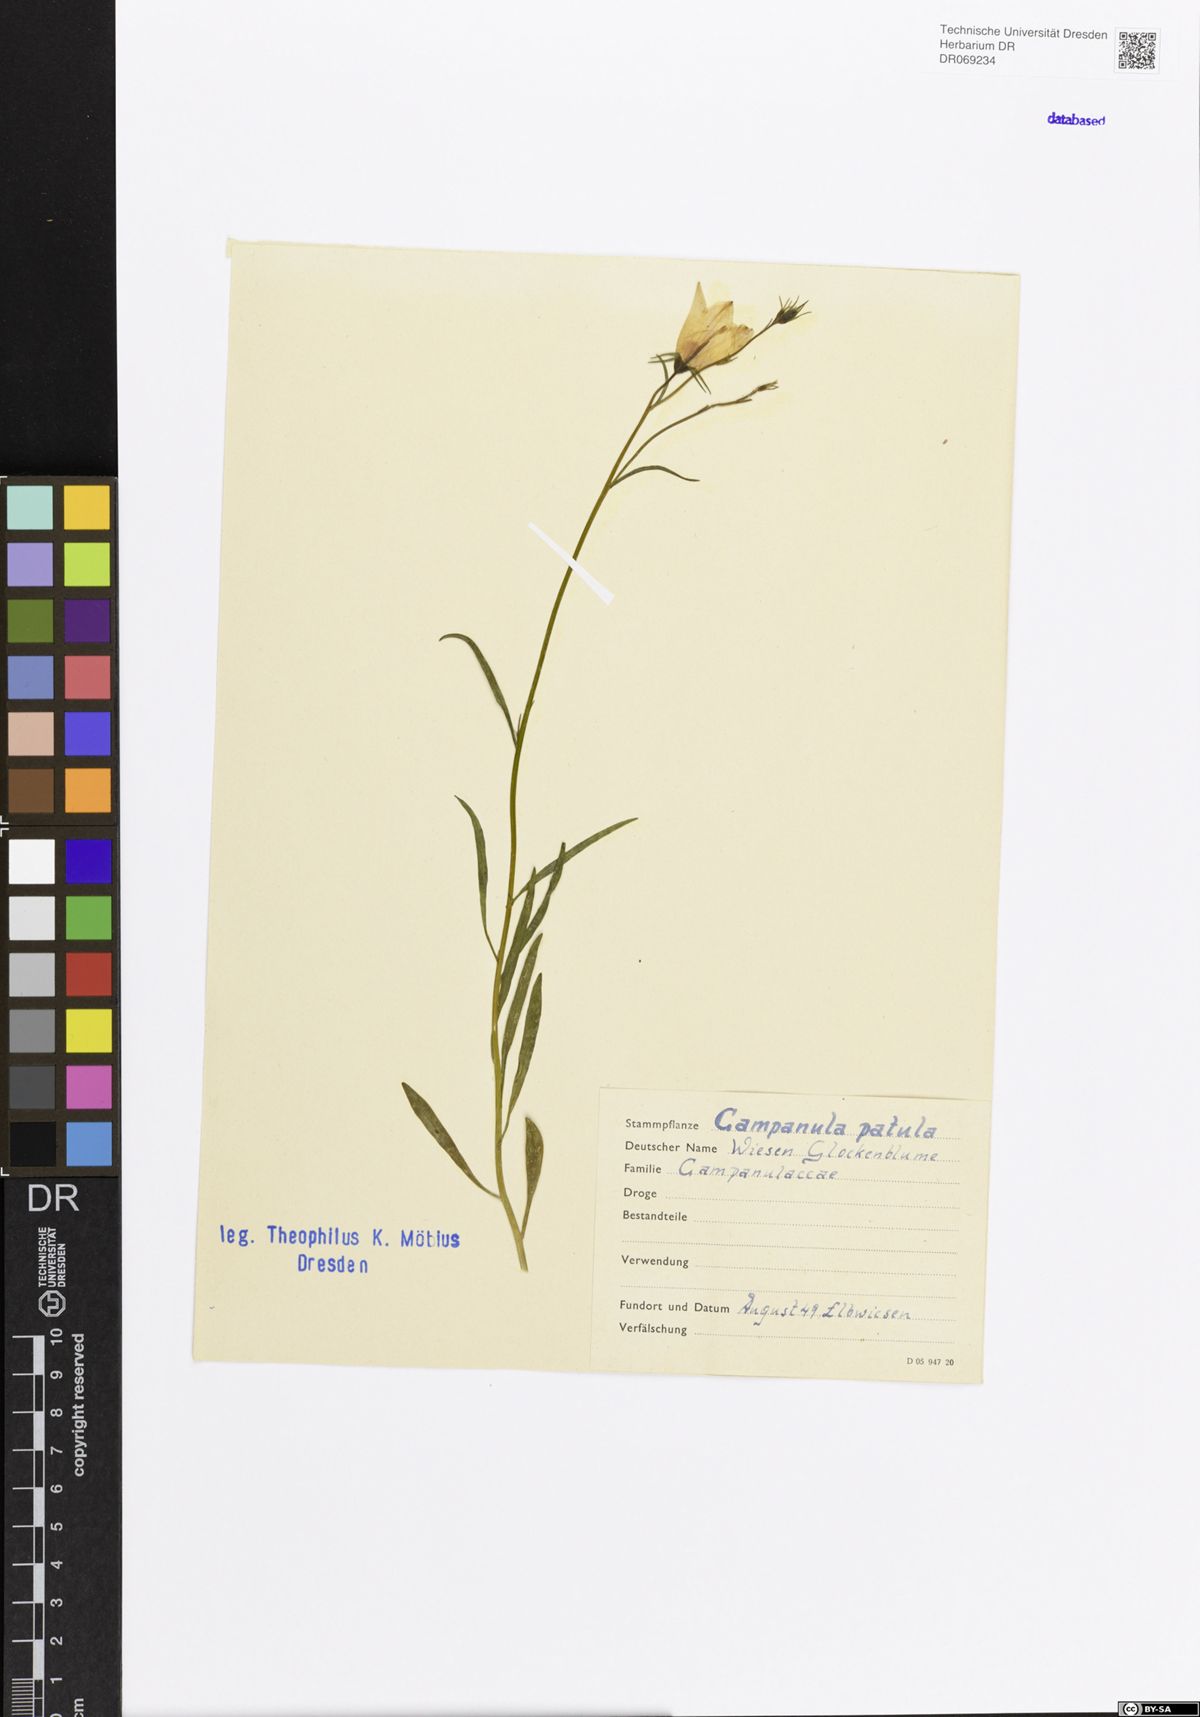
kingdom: Plantae
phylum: Tracheophyta
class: Magnoliopsida
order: Asterales
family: Campanulaceae
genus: Campanula
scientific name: Campanula patula
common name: Spreading bellflower
